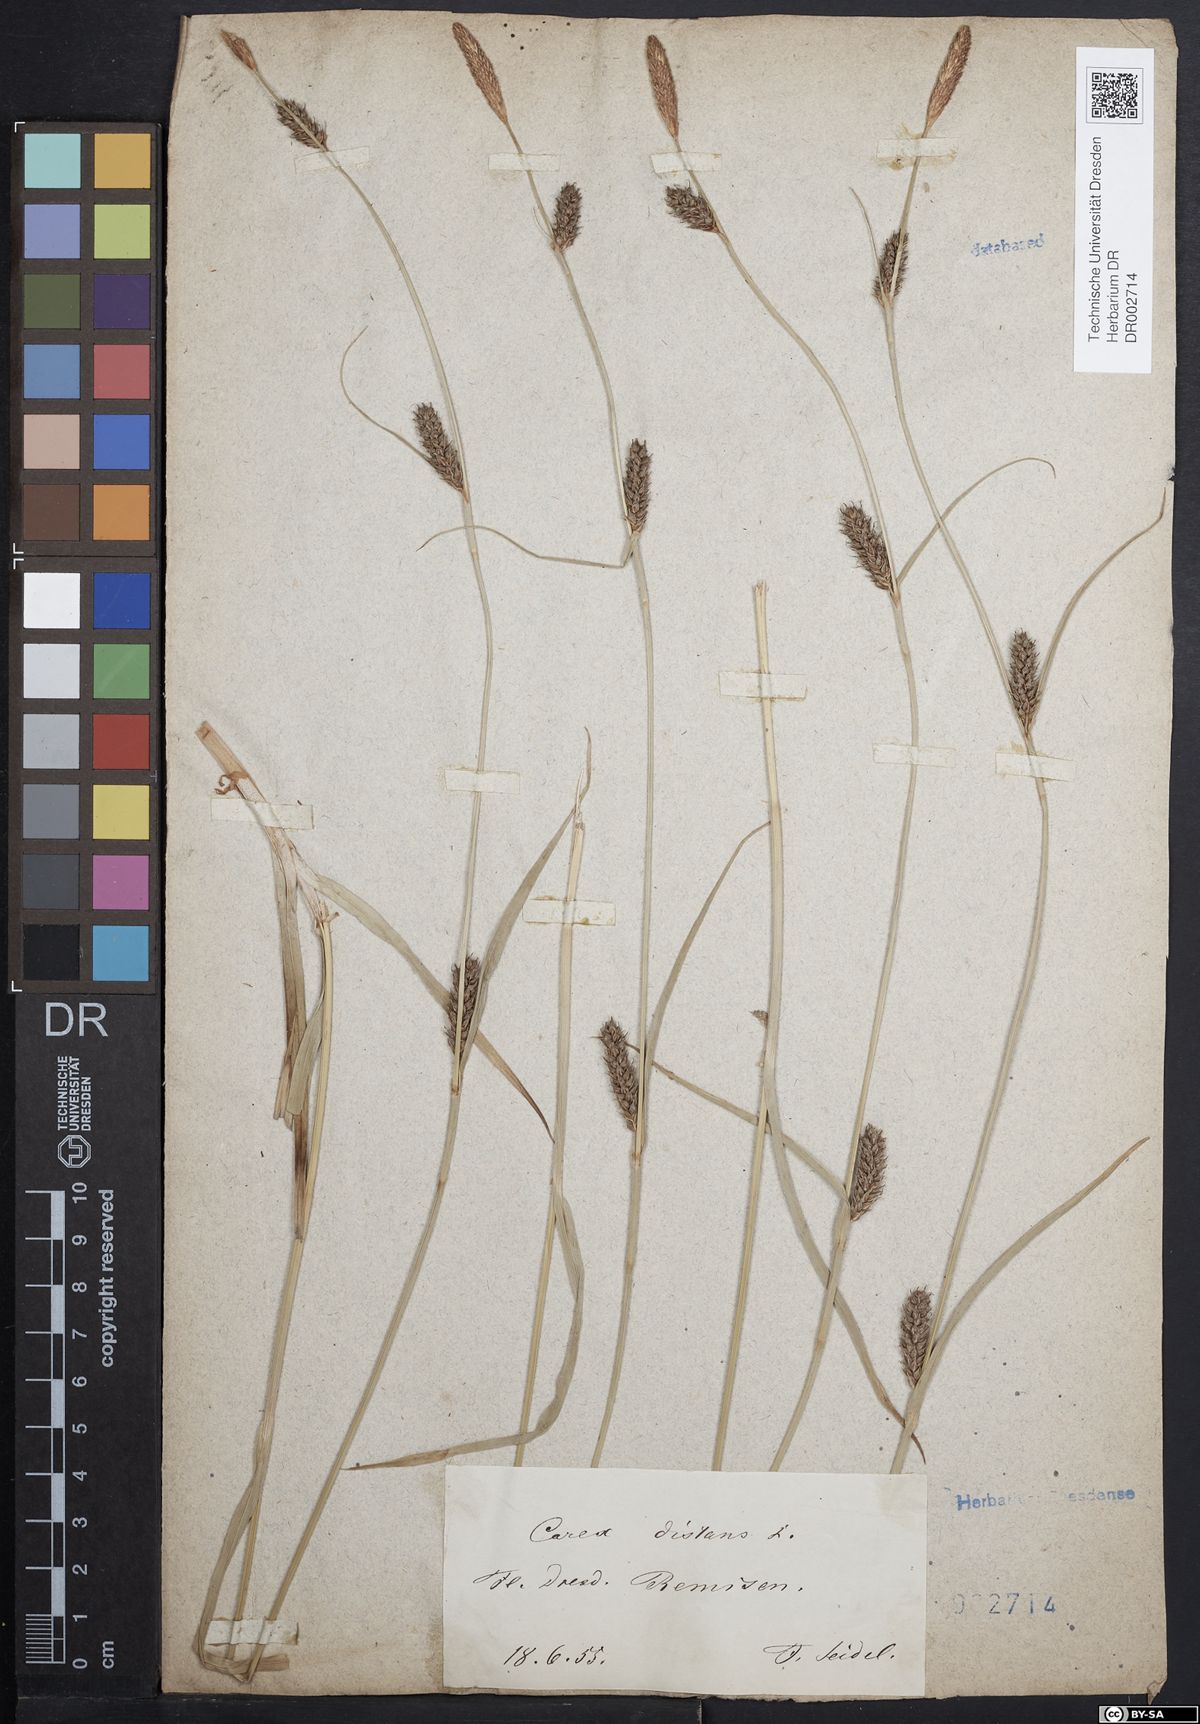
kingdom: Plantae
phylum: Tracheophyta
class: Liliopsida
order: Poales
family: Cyperaceae
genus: Carex
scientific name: Carex distans
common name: Distant sedge
